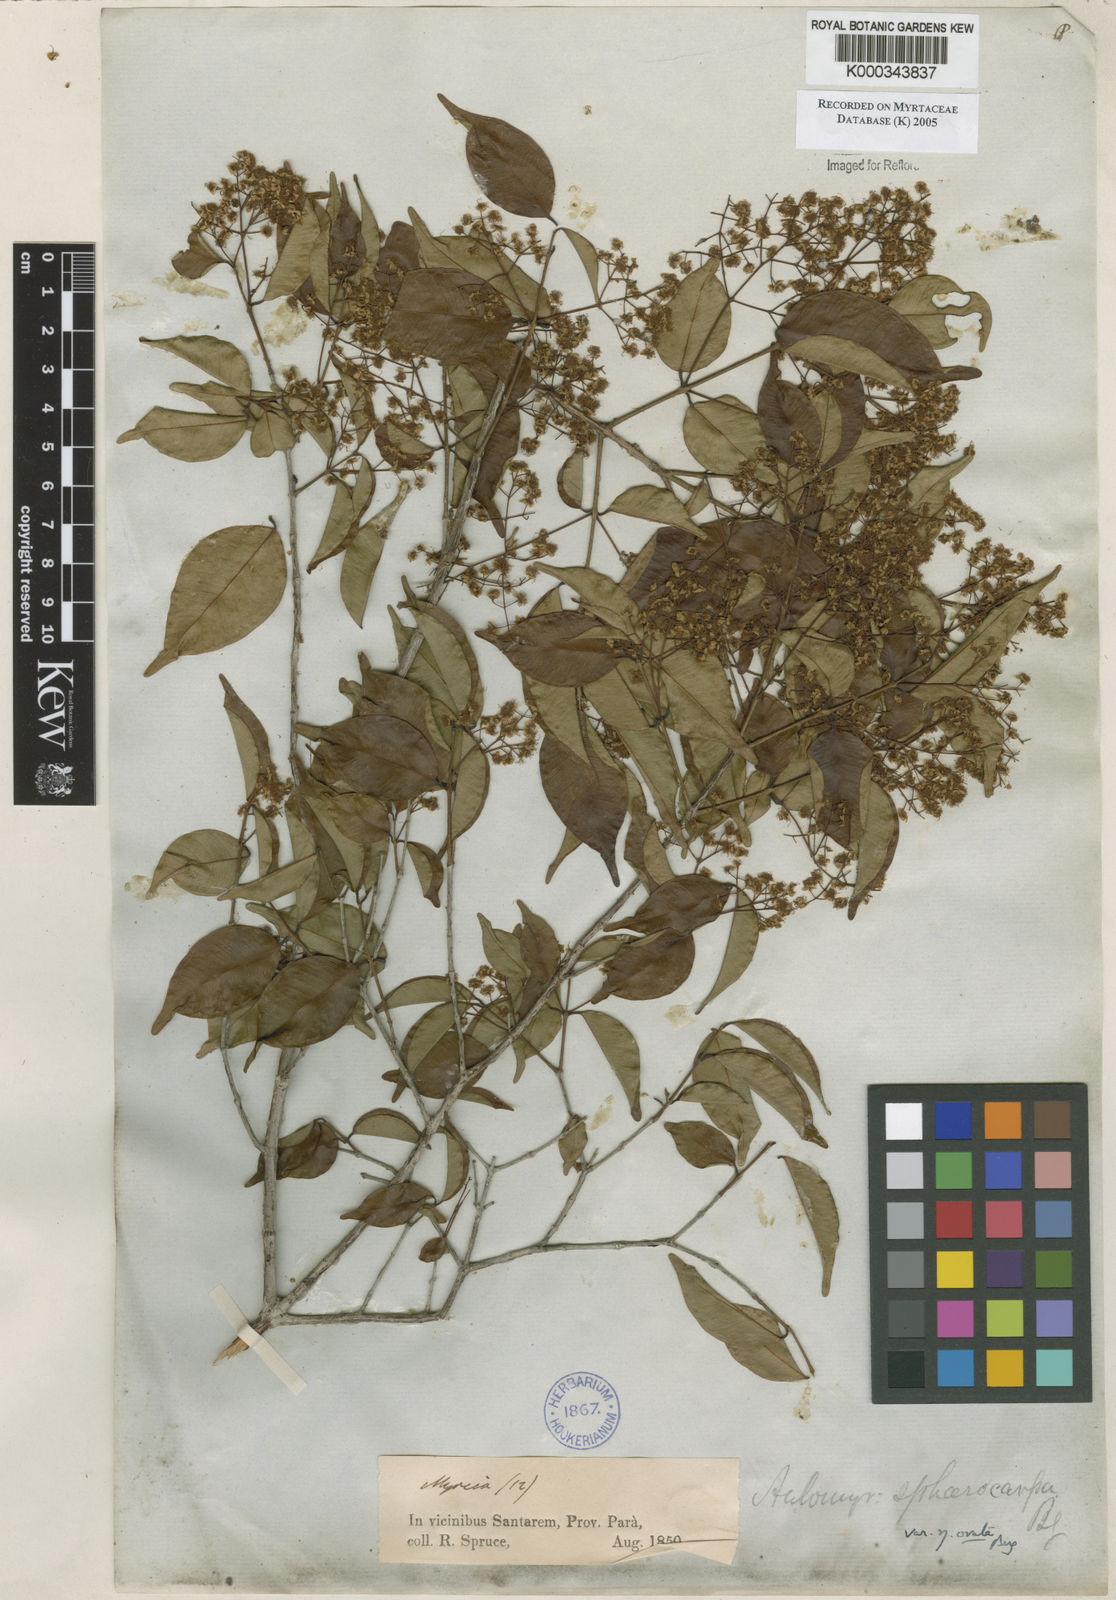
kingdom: Plantae
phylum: Tracheophyta
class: Magnoliopsida
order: Myrtales
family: Myrtaceae
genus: Myrcia
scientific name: Myrcia multiflora
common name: Pedra hume
